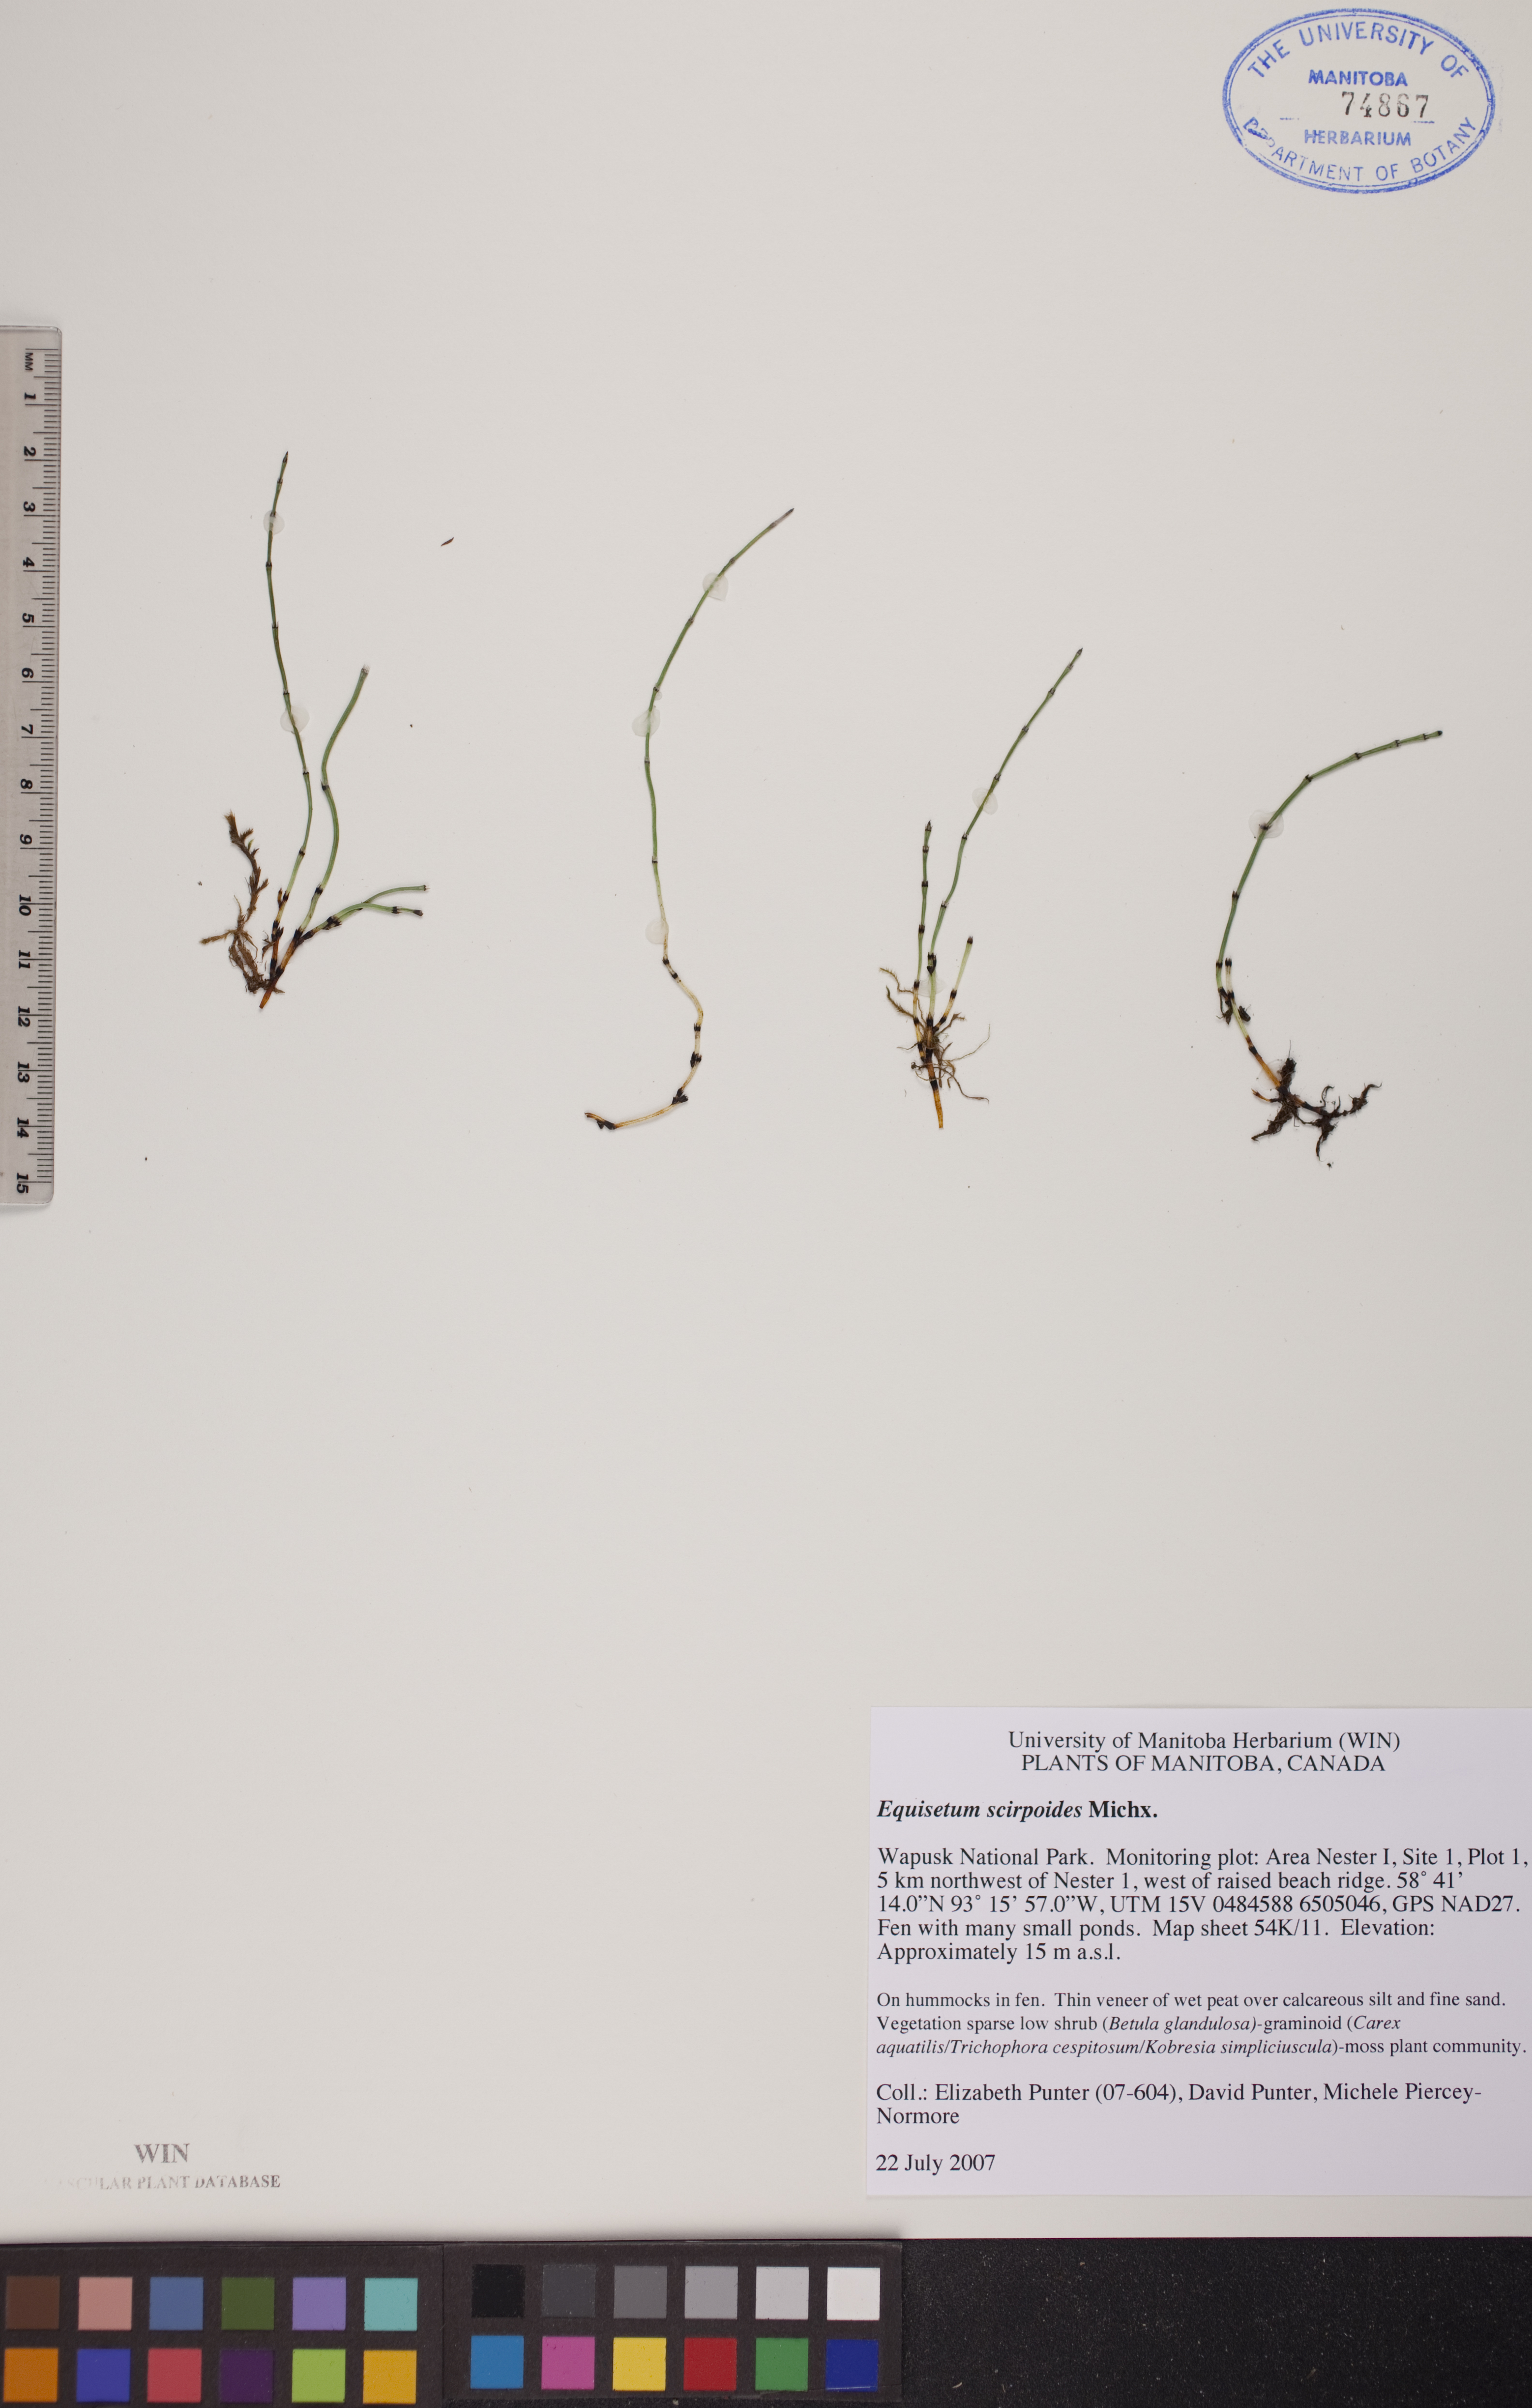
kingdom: Plantae
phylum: Tracheophyta
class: Polypodiopsida
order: Equisetales
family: Equisetaceae
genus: Equisetum
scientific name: Equisetum scirpoides
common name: Delicate horsetail
